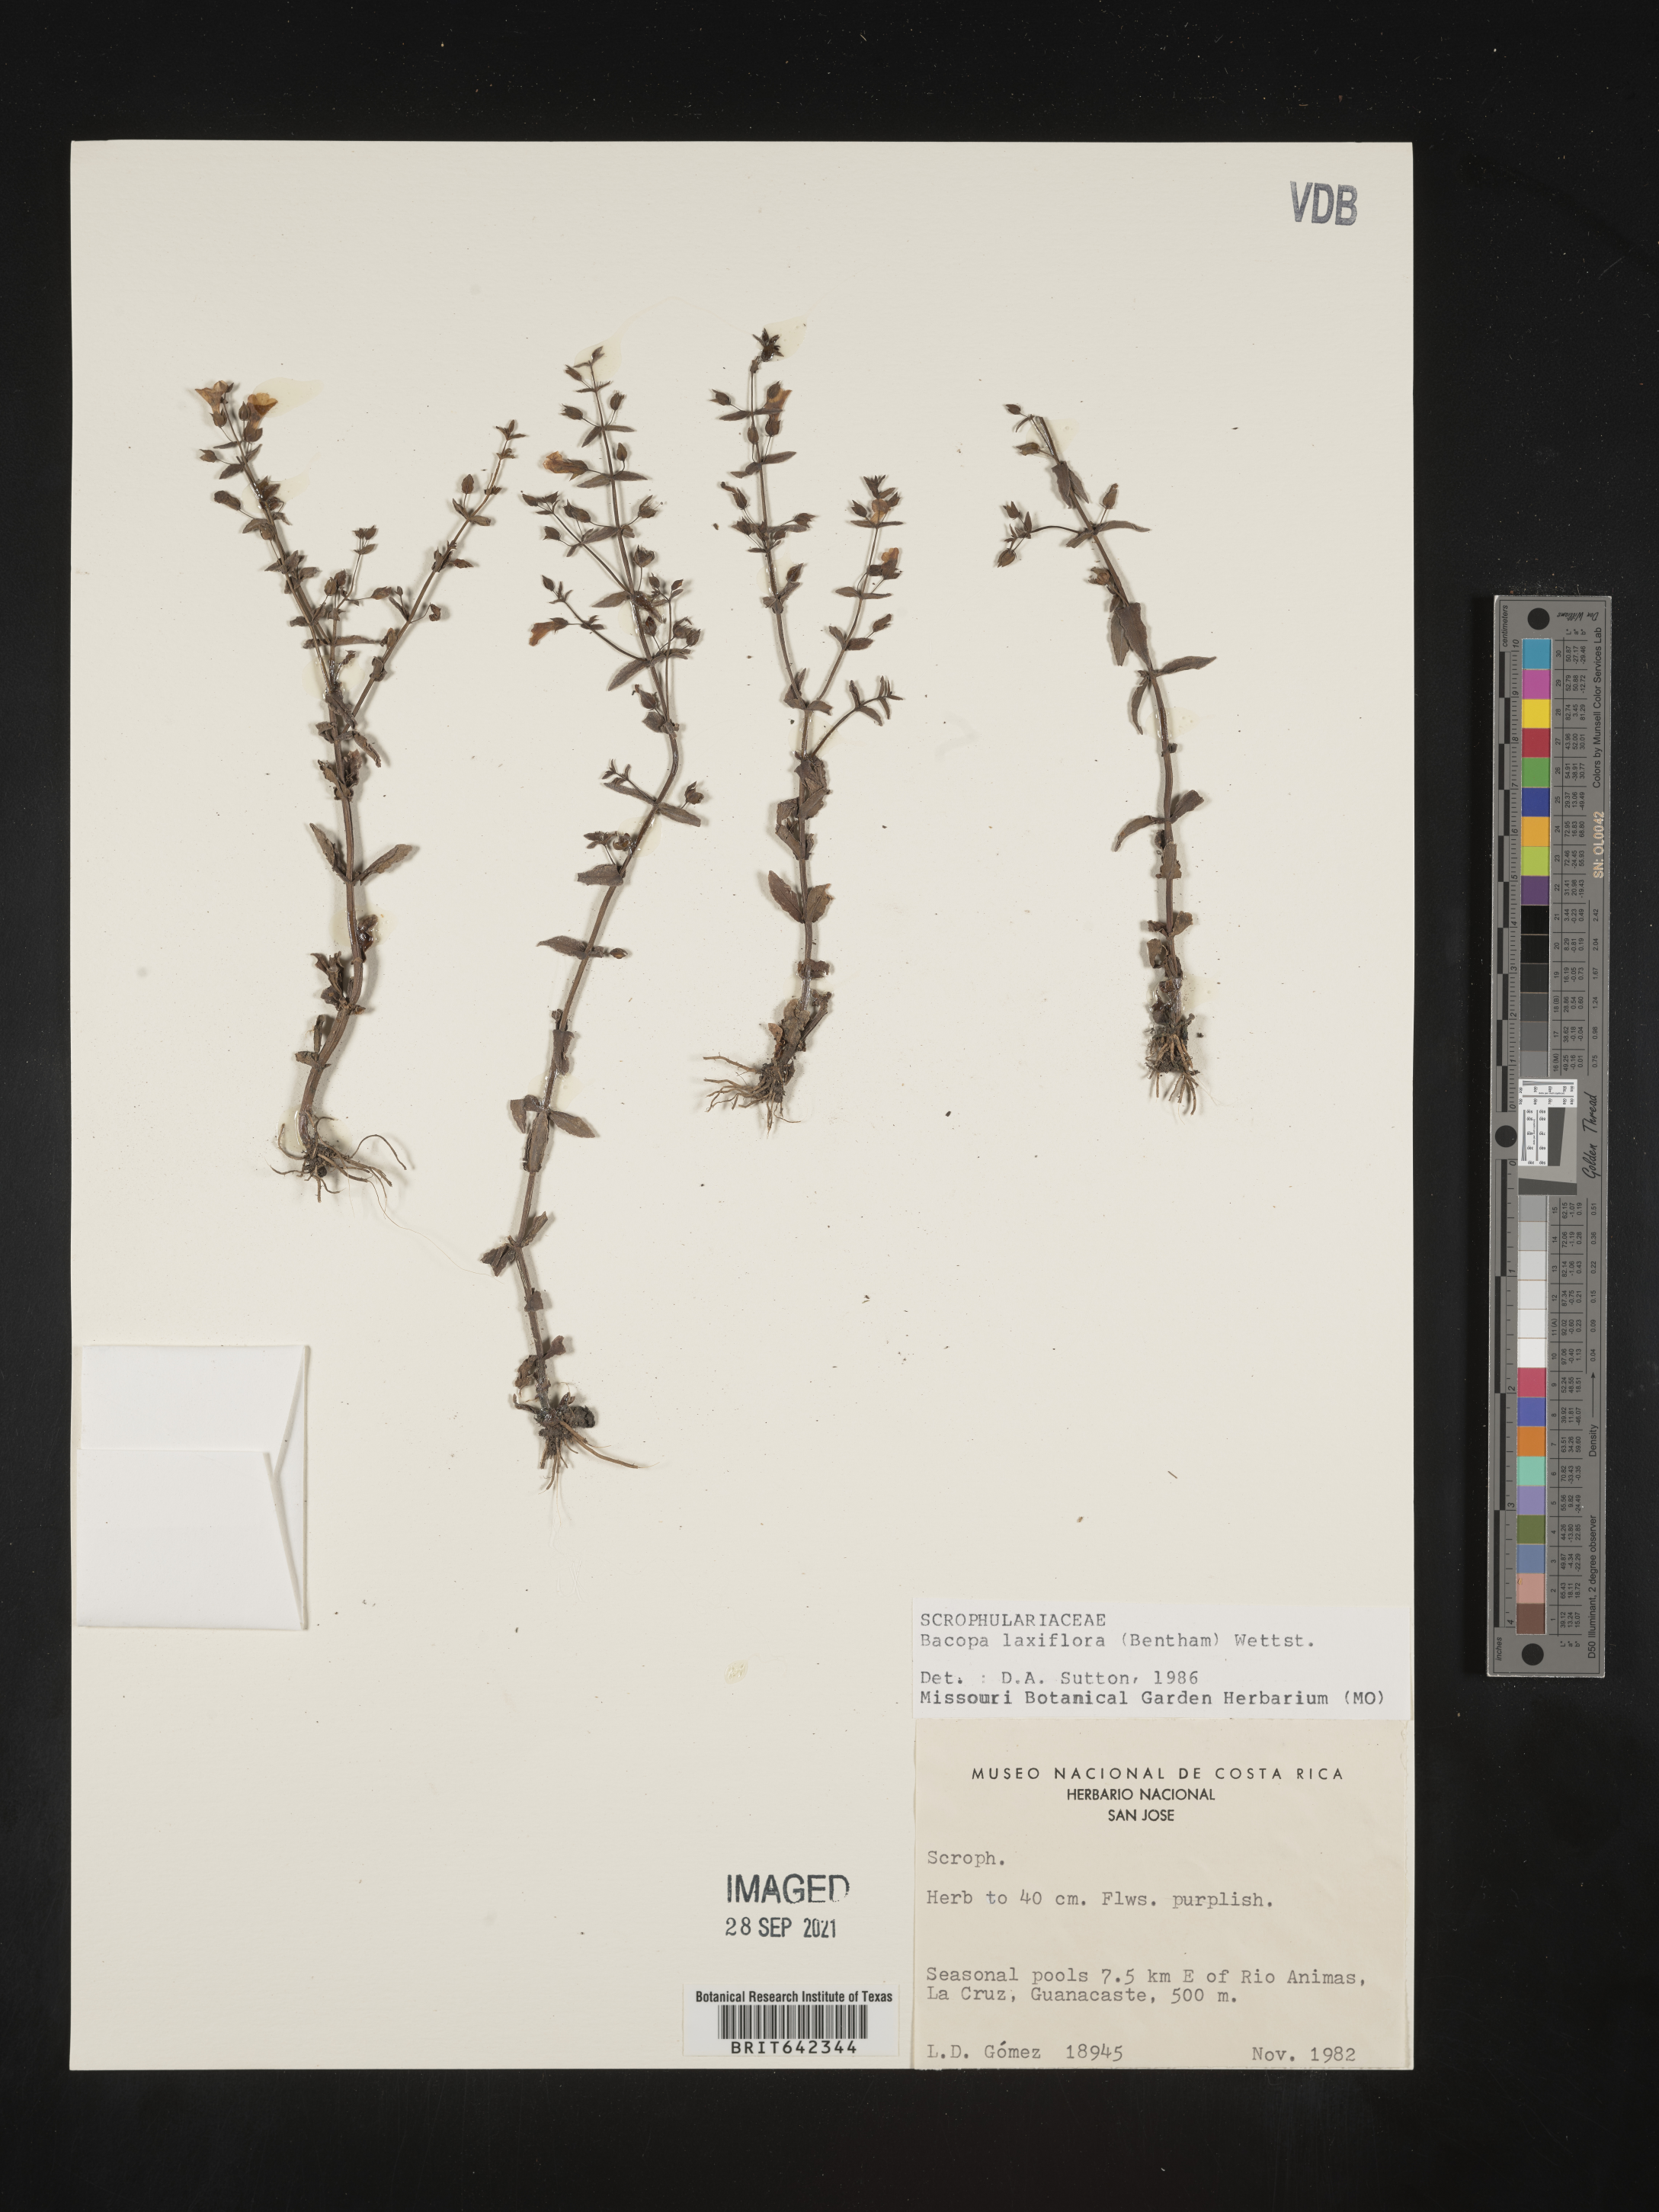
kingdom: Plantae
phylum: Tracheophyta
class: Magnoliopsida
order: Lamiales
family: Plantaginaceae
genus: Bacopa
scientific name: Bacopa
